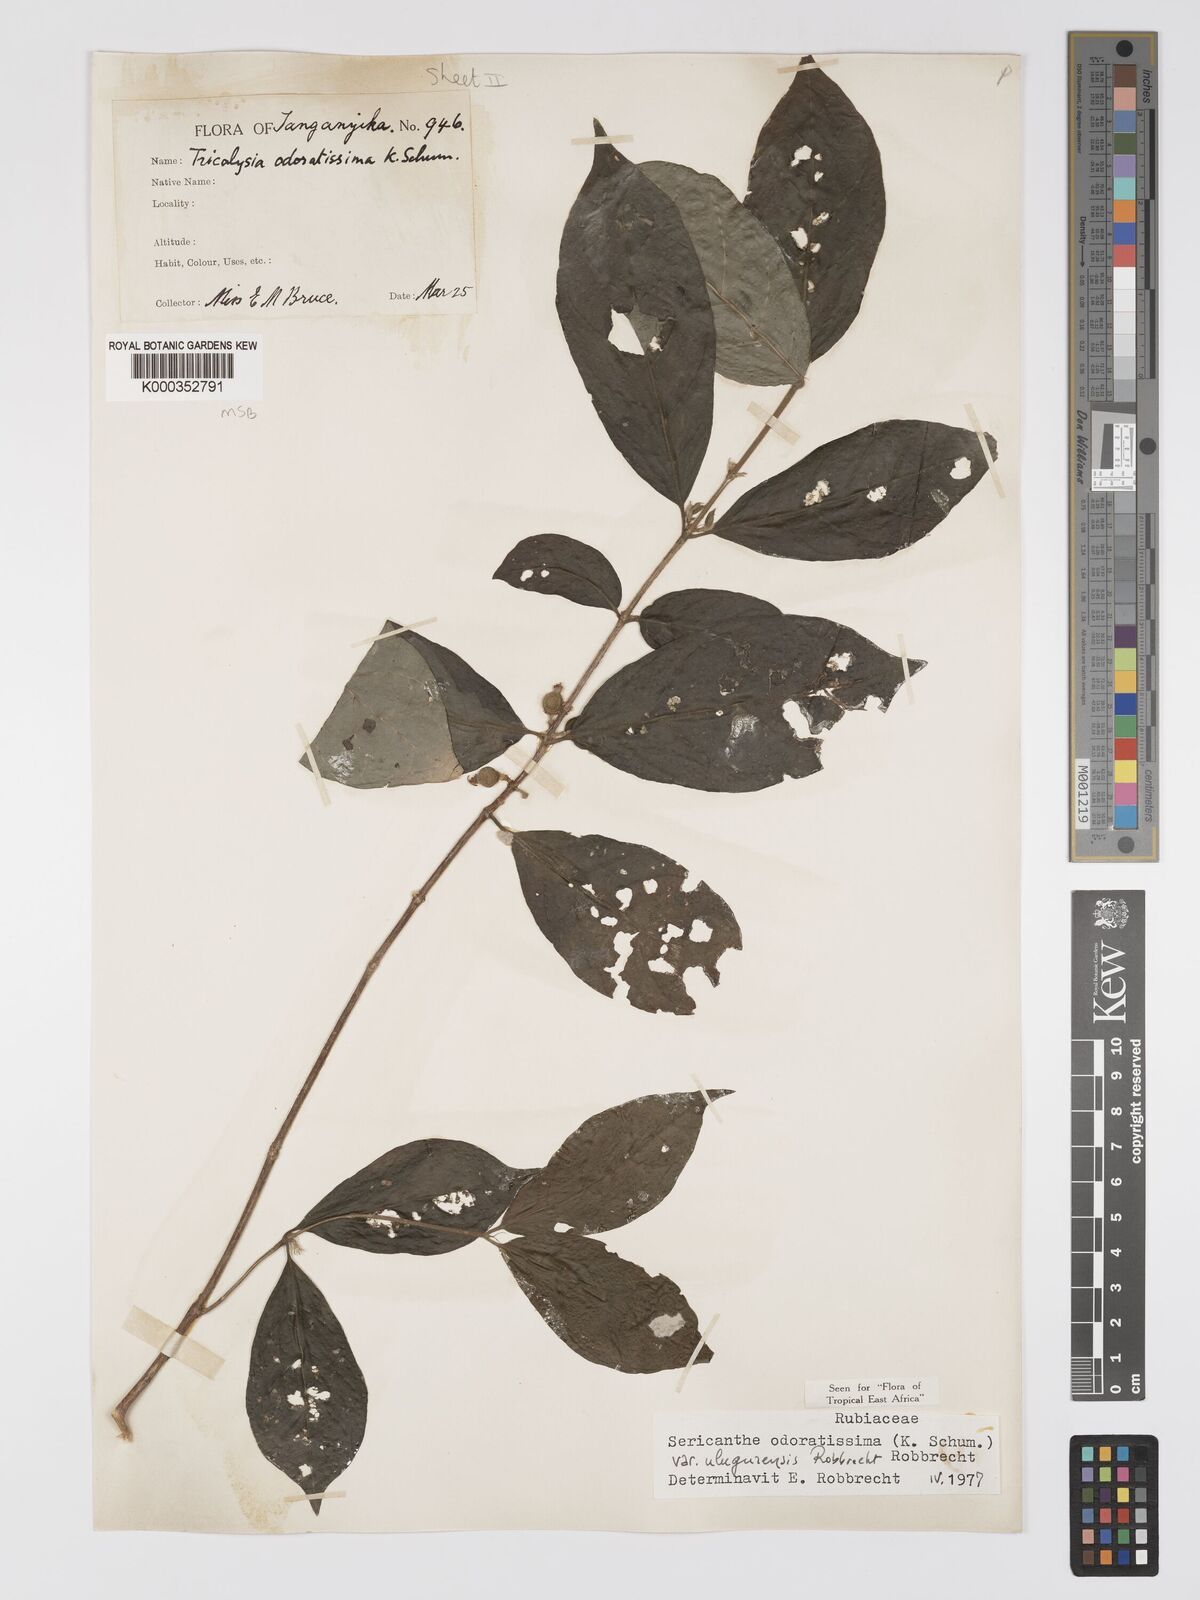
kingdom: Plantae
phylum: Tracheophyta
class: Magnoliopsida
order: Gentianales
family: Rubiaceae
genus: Sericanthe
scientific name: Sericanthe odoratissima
